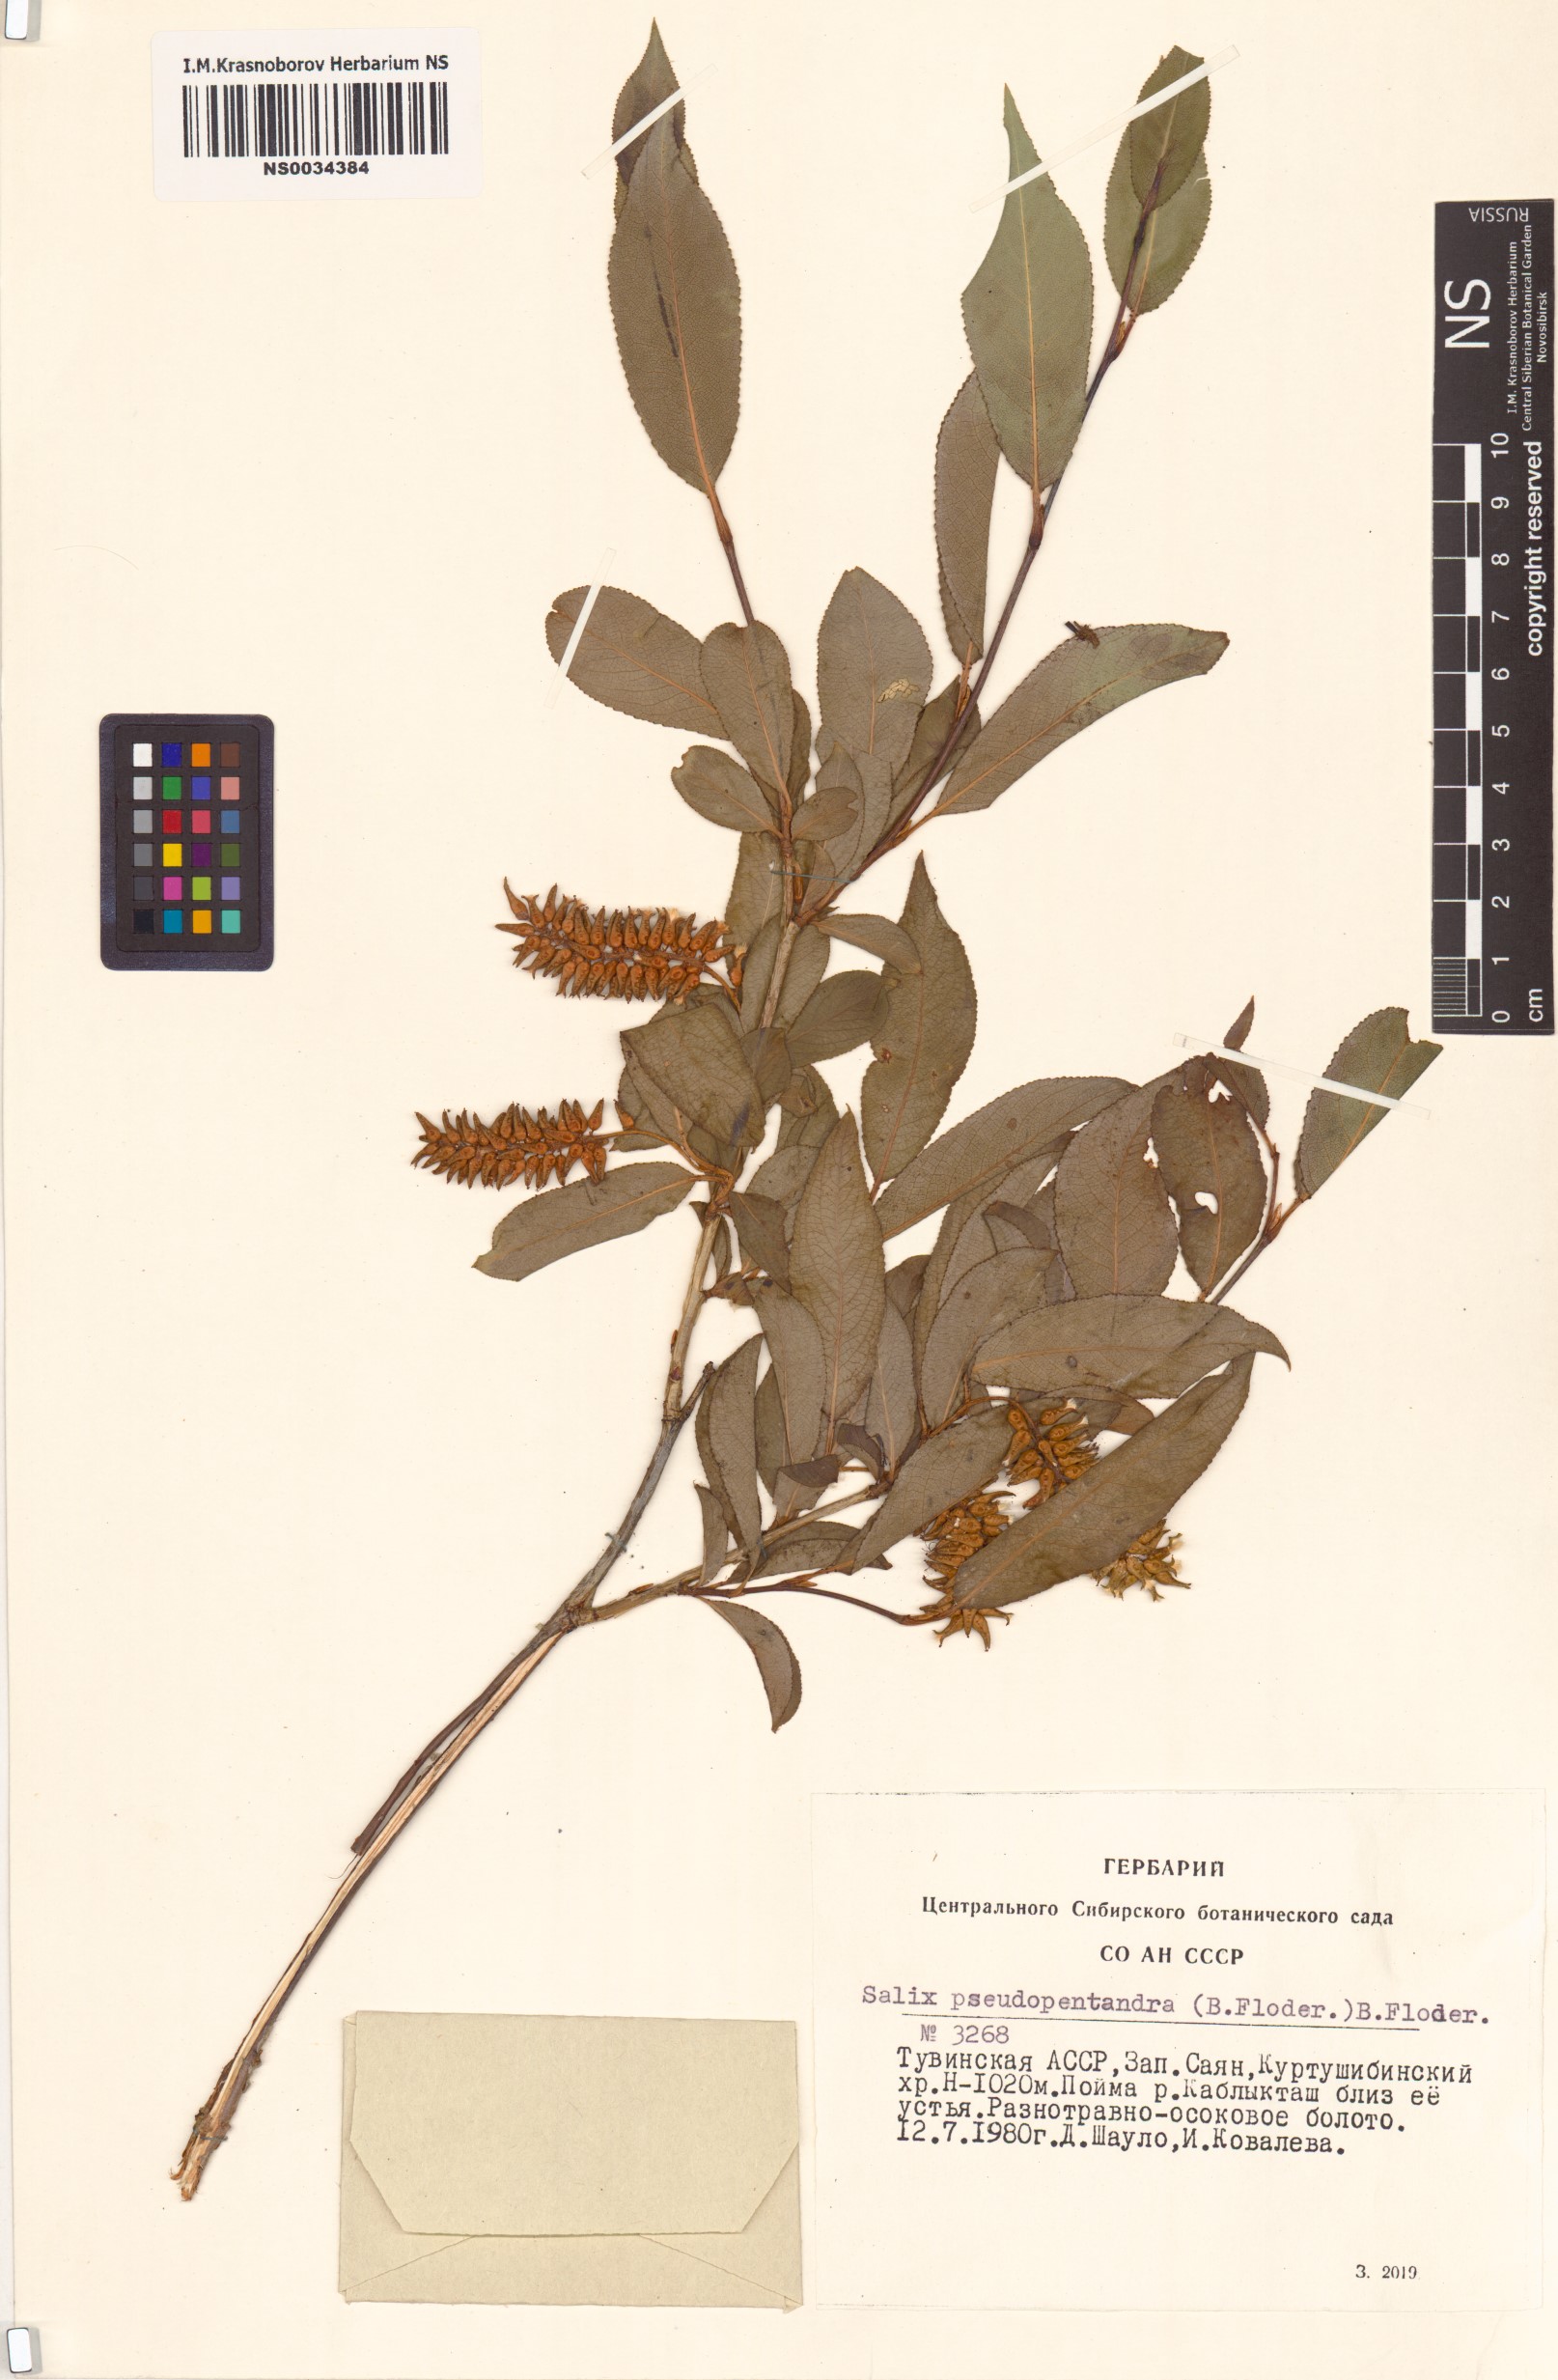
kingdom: Plantae
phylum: Tracheophyta
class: Magnoliopsida
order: Malpighiales
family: Salicaceae
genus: Salix
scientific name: Salix pseudopentandra
